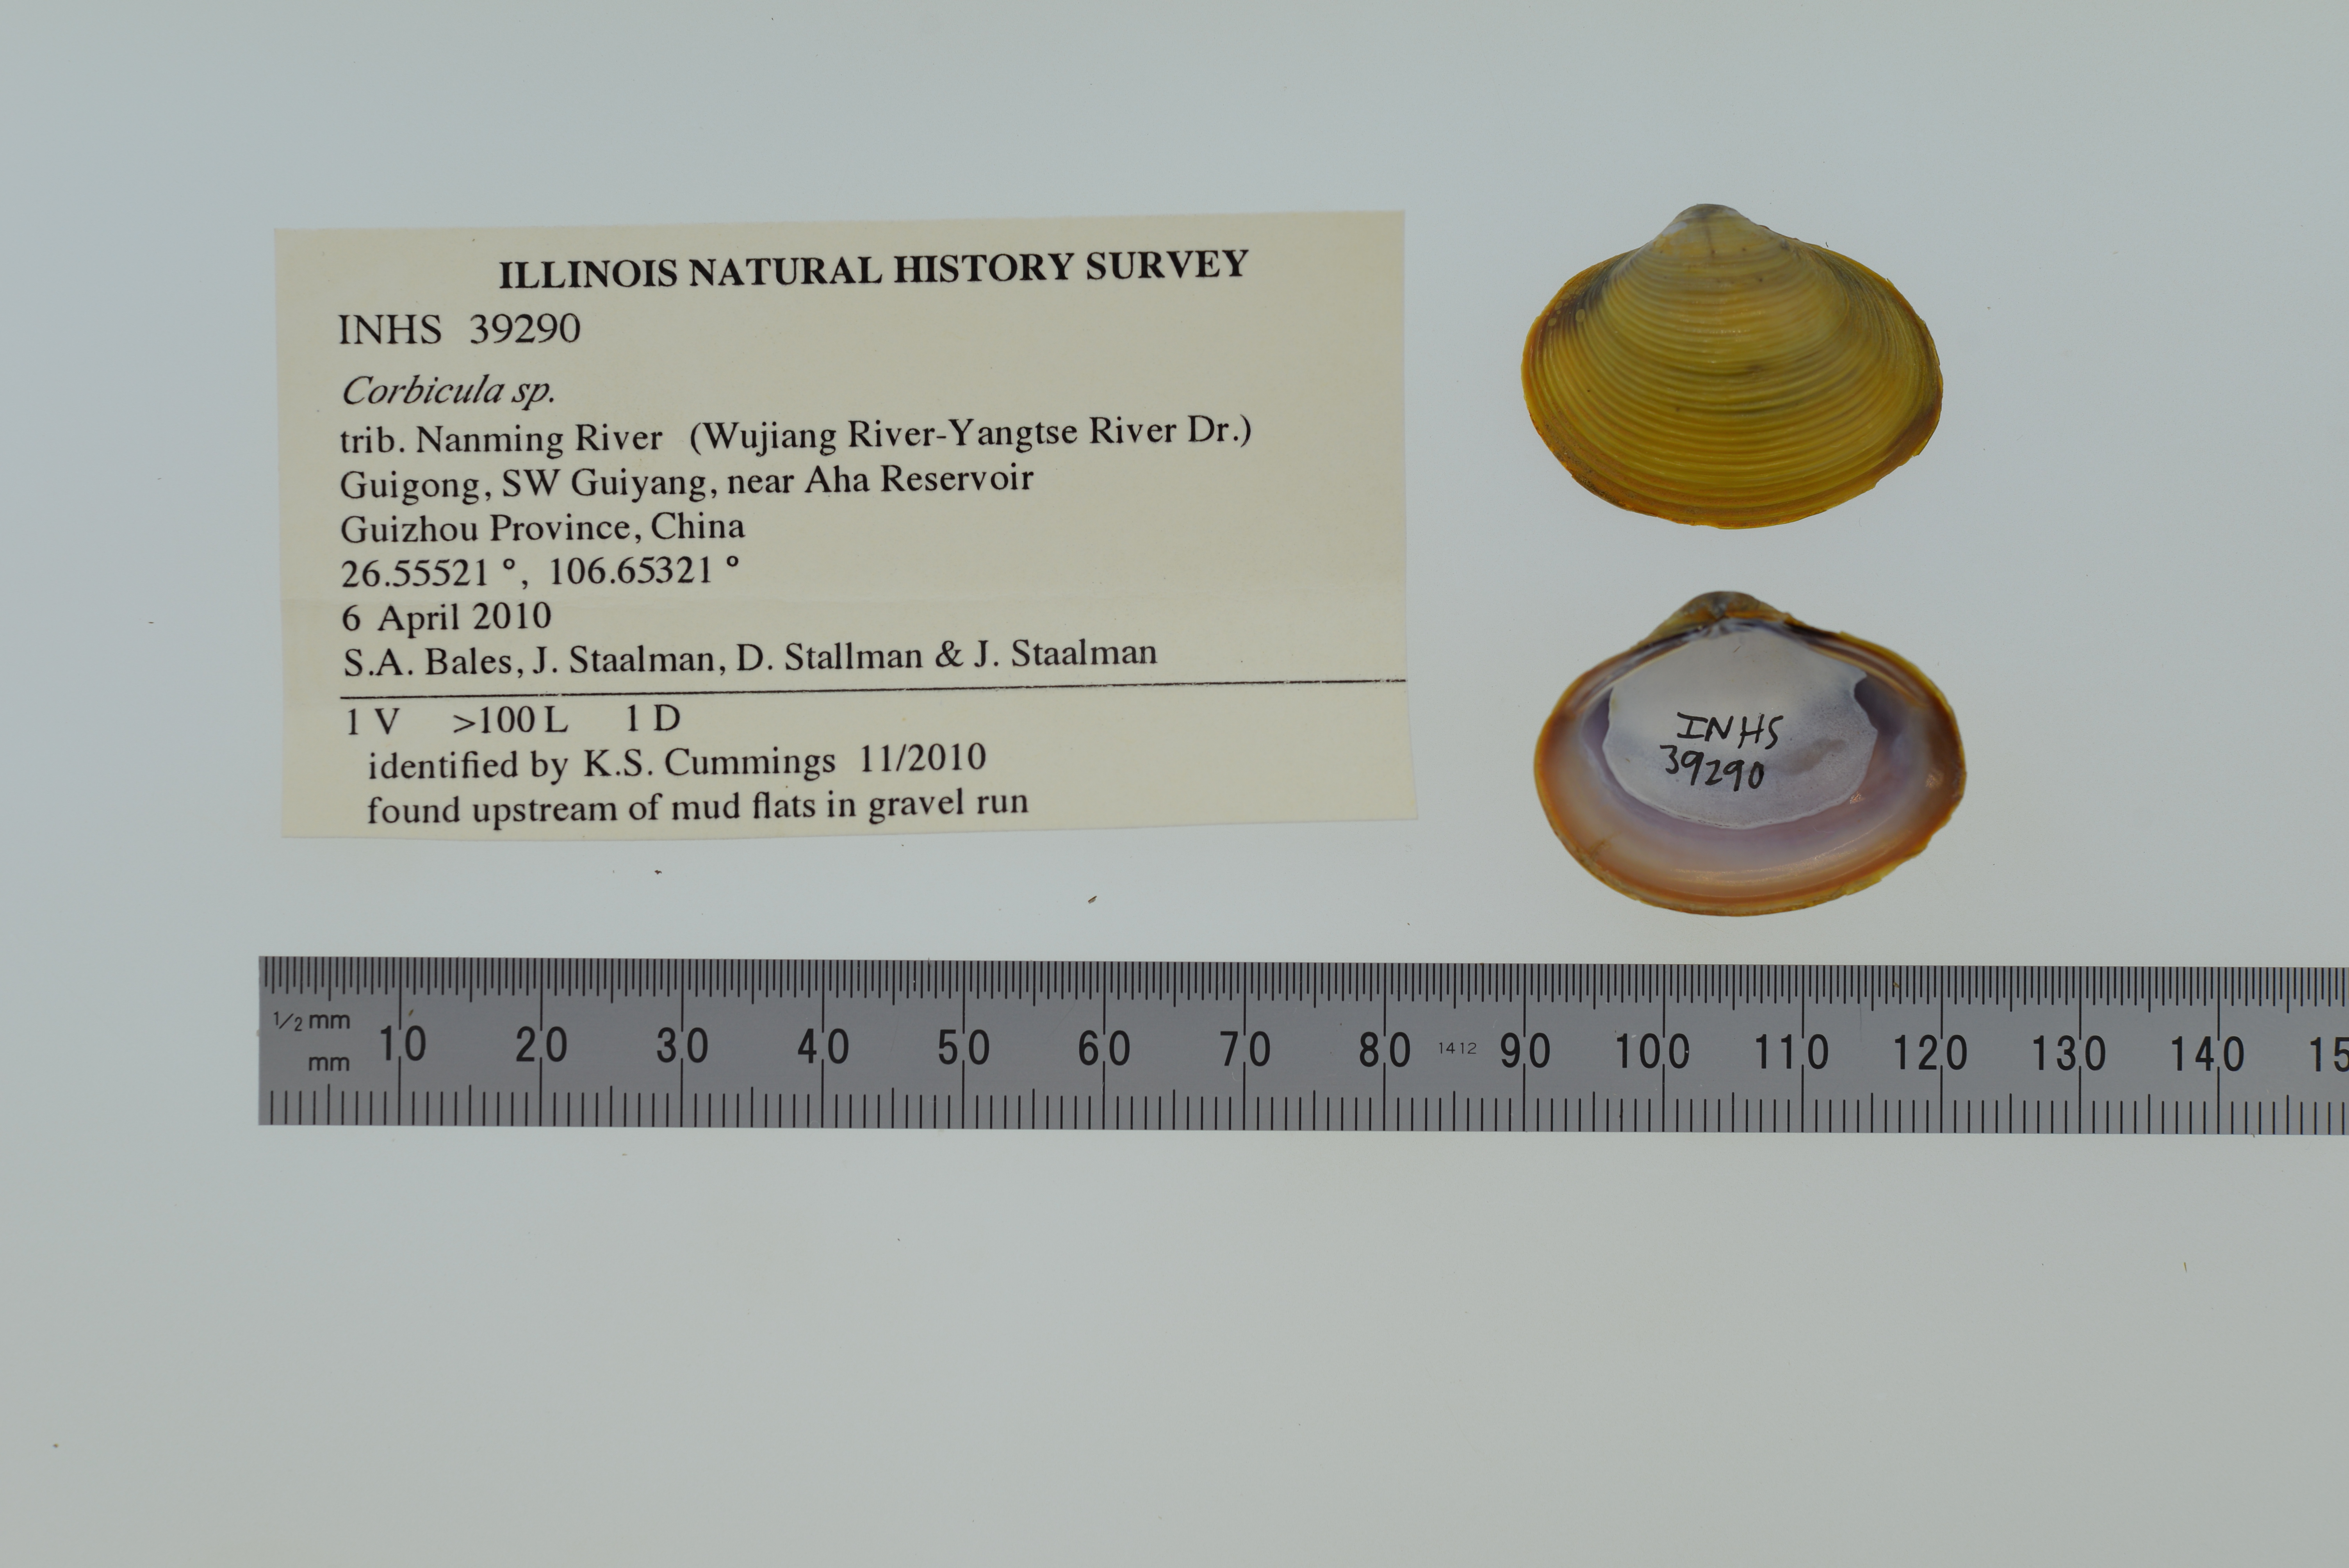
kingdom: Animalia
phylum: Mollusca
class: Bivalvia
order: Venerida
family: Cyrenidae
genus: Corbicula
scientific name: Corbicula
